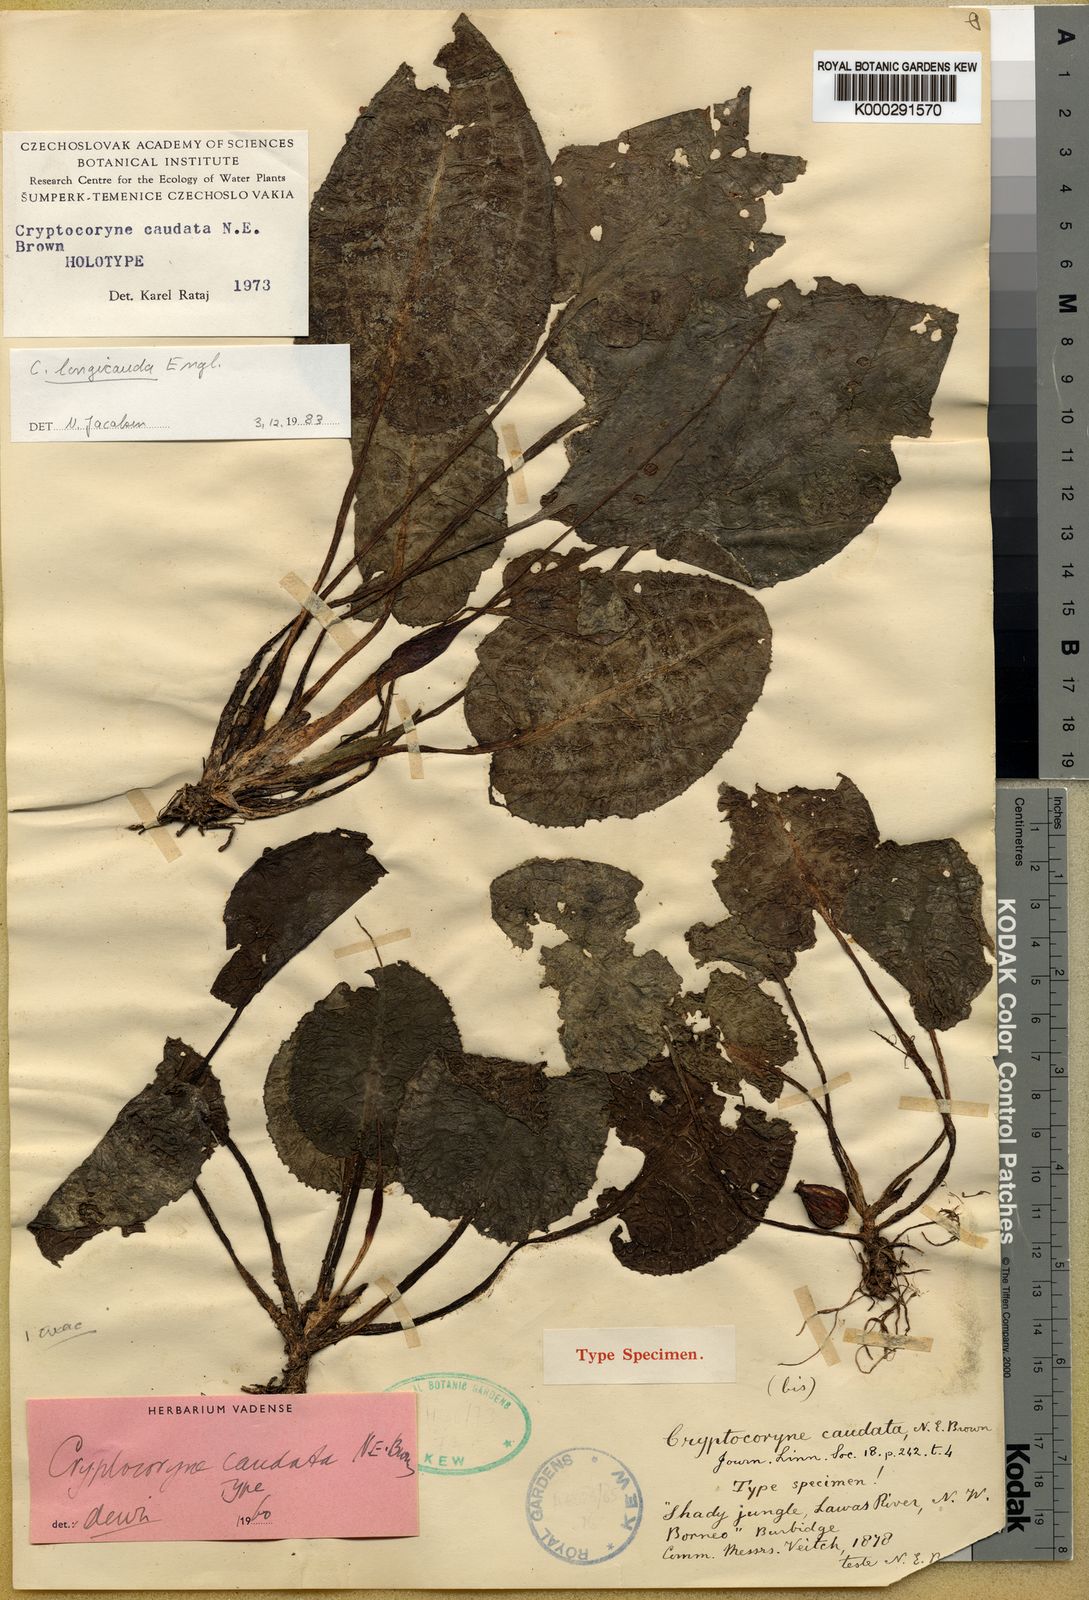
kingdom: Plantae
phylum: Tracheophyta
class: Liliopsida
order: Alismatales
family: Araceae
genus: Cryptocoryne
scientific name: Cryptocoryne longicauda
